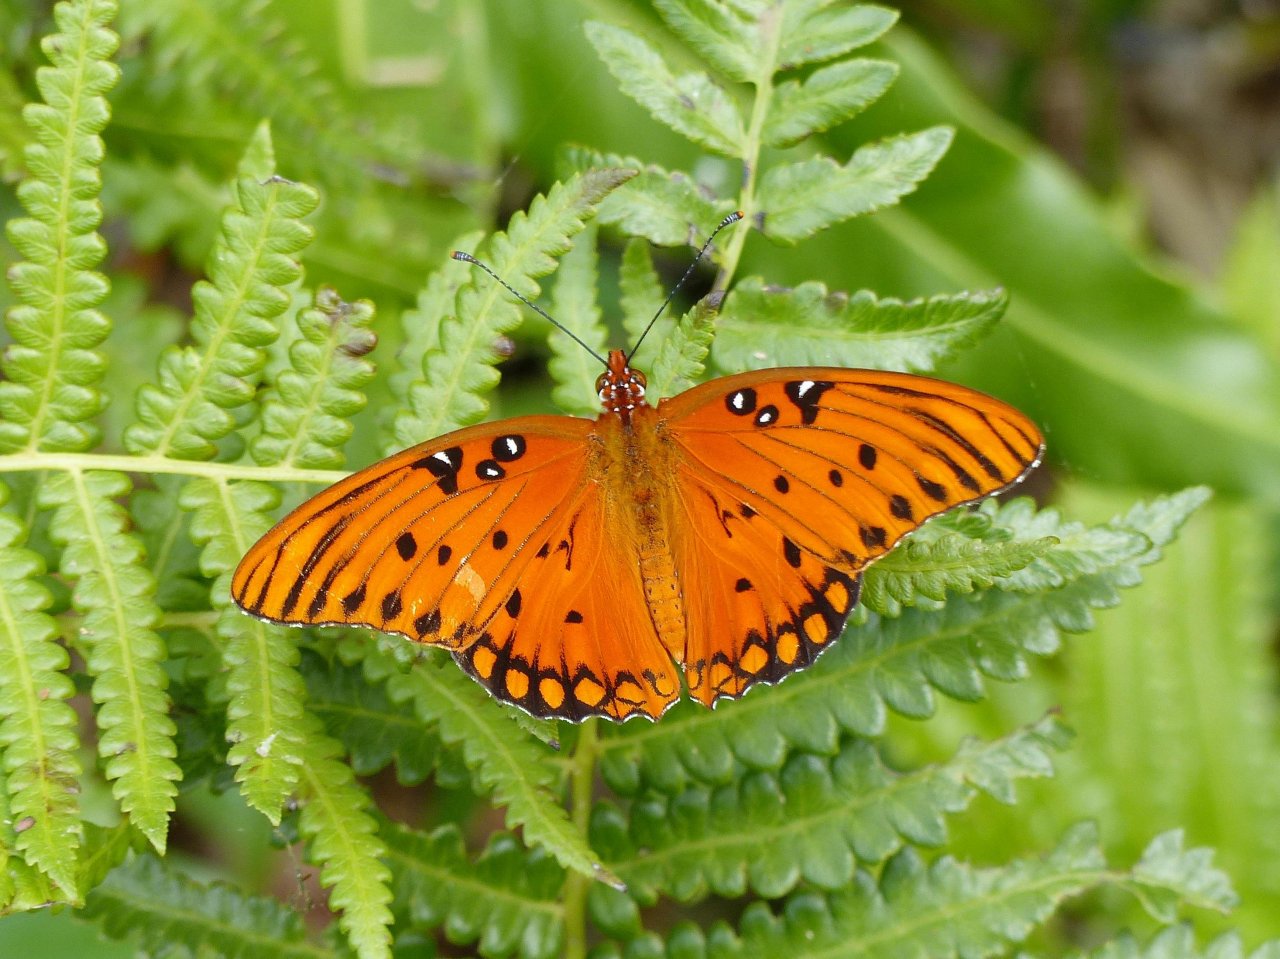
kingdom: Animalia
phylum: Arthropoda
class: Insecta
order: Lepidoptera
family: Nymphalidae
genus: Dione
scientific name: Dione vanillae
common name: Gulf Fritillary
